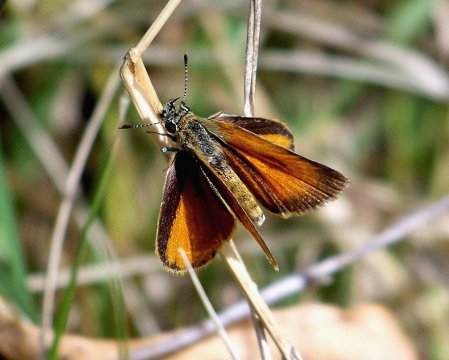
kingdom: Animalia
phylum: Arthropoda
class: Insecta
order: Lepidoptera
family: Hesperiidae
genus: Ancyloxypha
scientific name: Ancyloxypha arene
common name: Tropical Least Skipper
